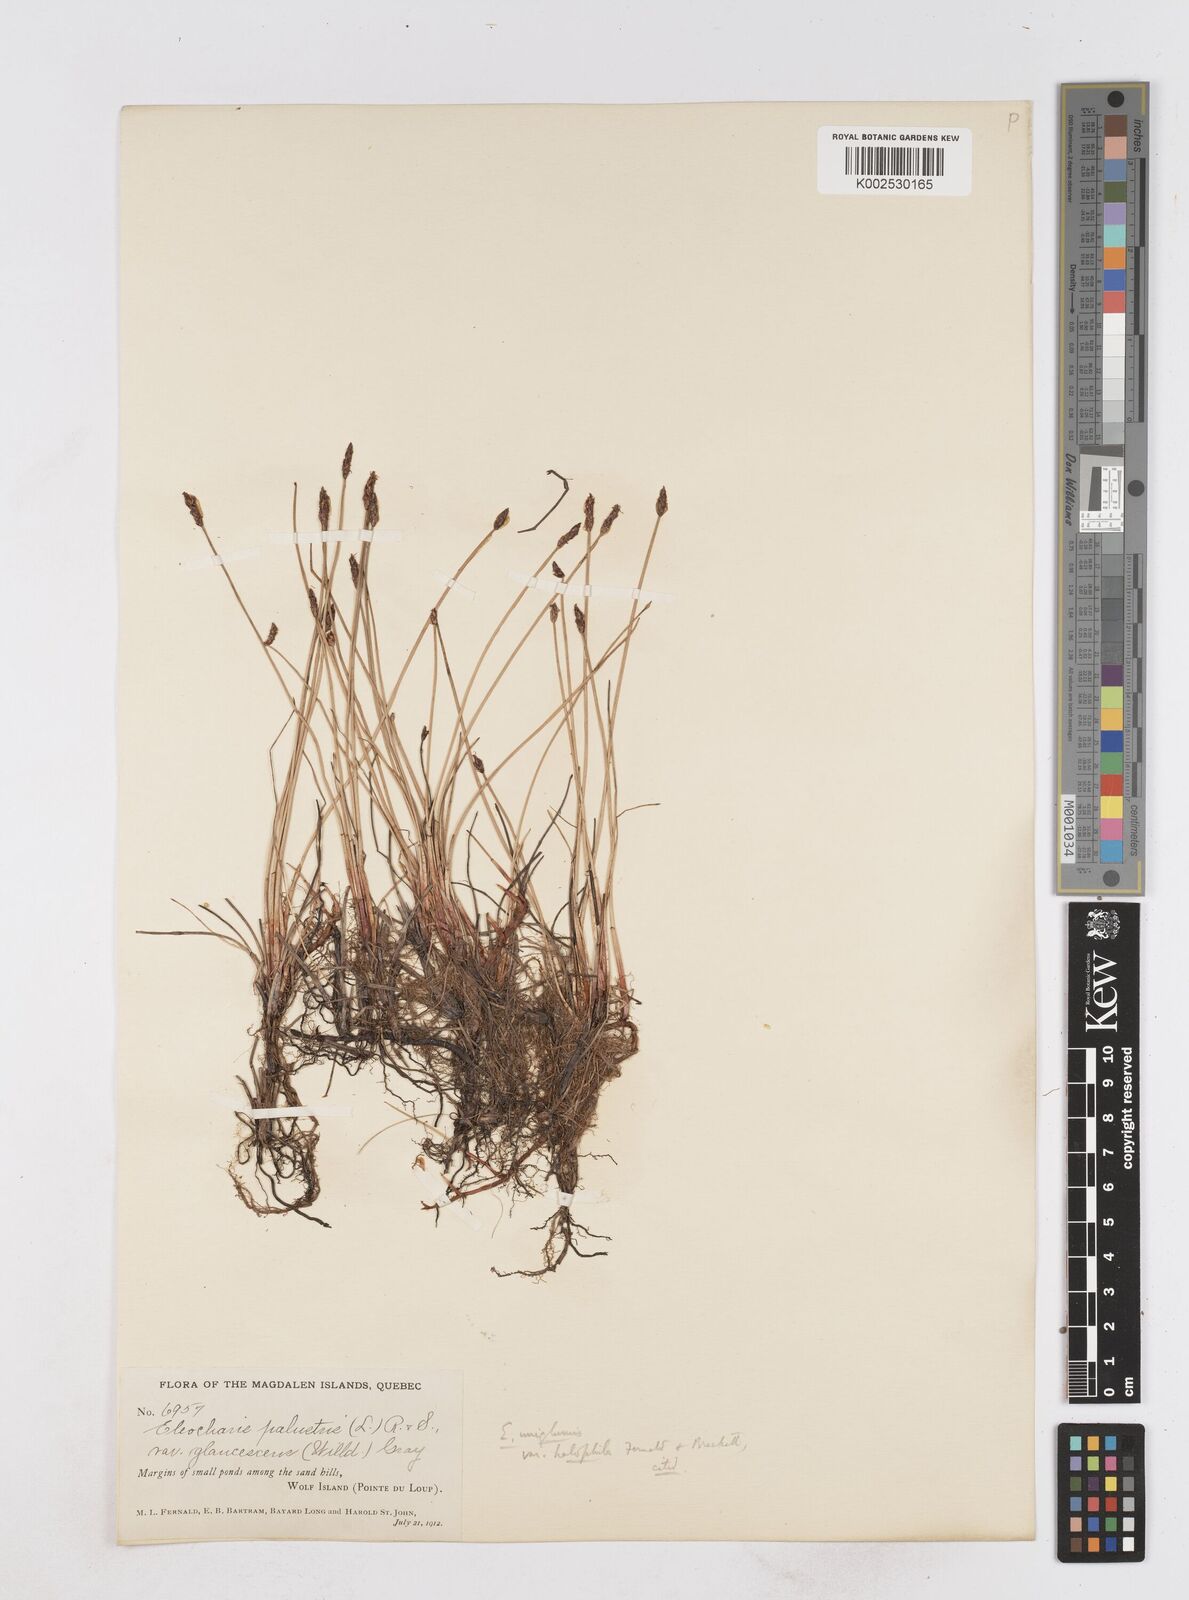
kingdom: Plantae
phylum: Tracheophyta
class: Liliopsida
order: Poales
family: Cyperaceae
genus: Eleocharis
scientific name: Eleocharis uniglumis
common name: Slender spike-rush
